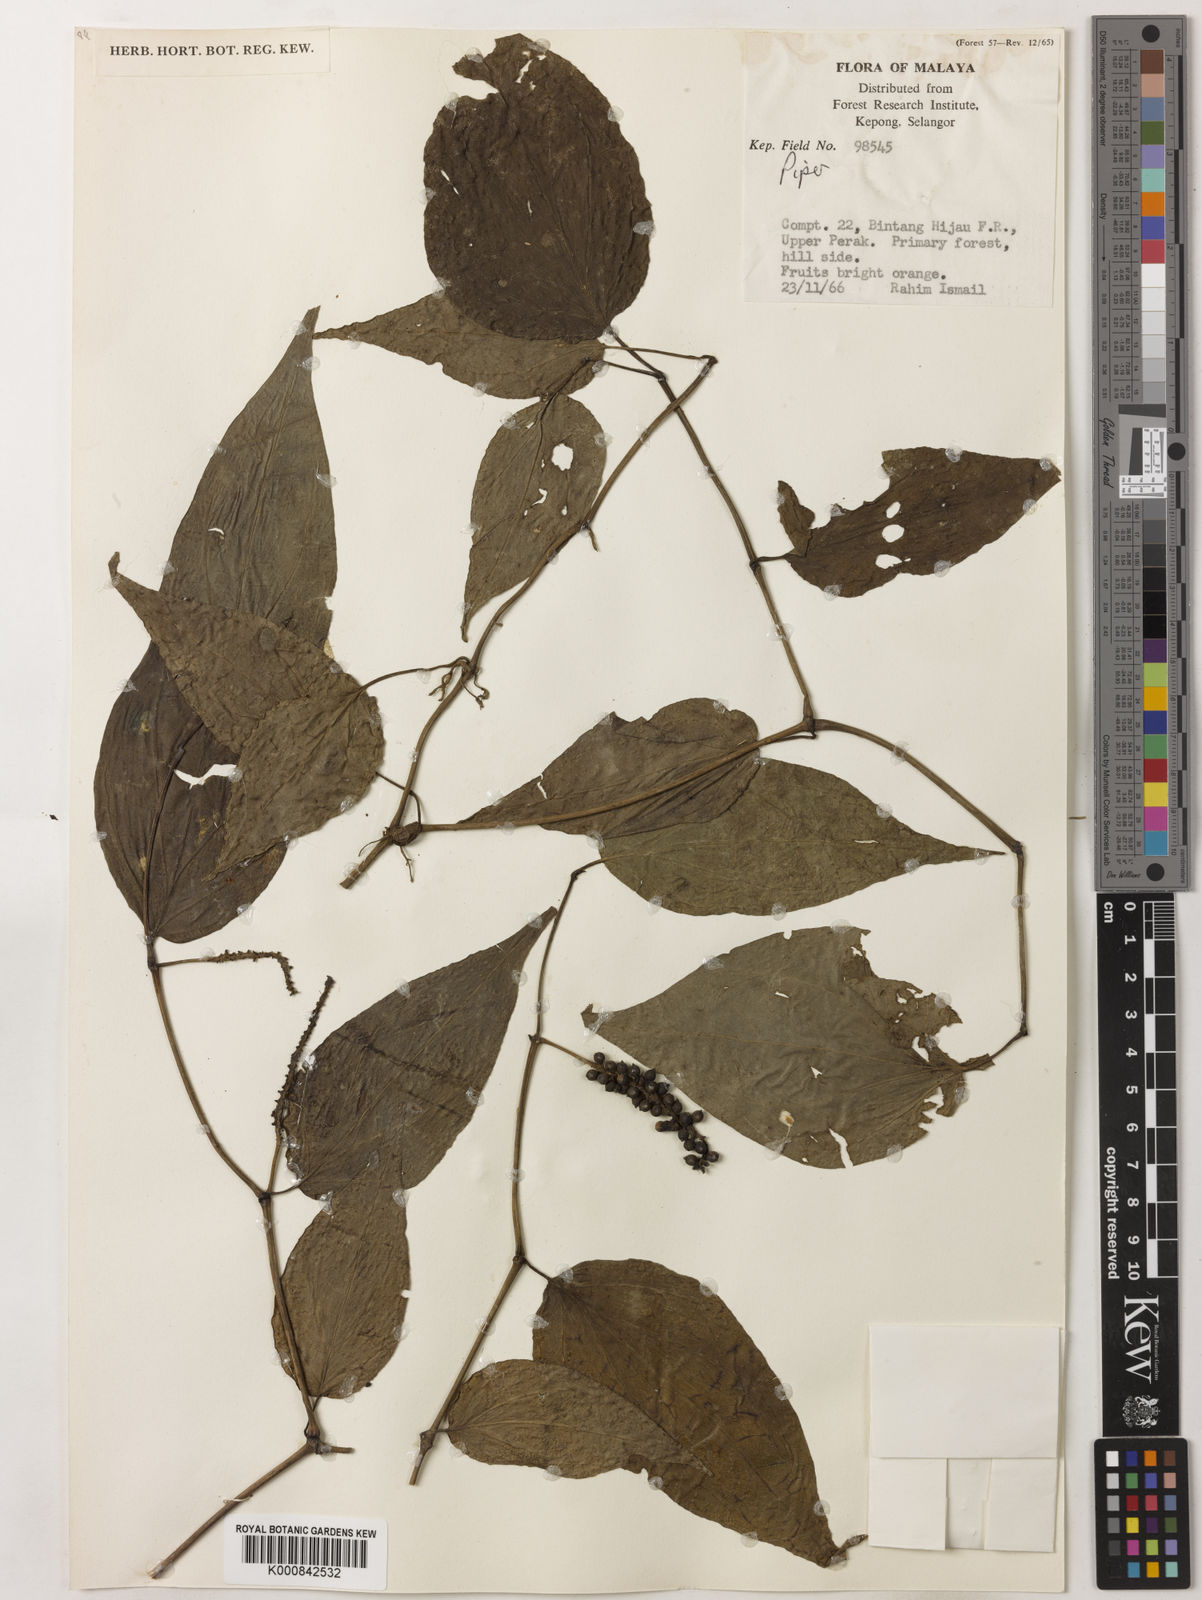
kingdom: Plantae
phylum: Tracheophyta
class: Magnoliopsida
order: Piperales
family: Piperaceae
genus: Piper
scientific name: Piper
